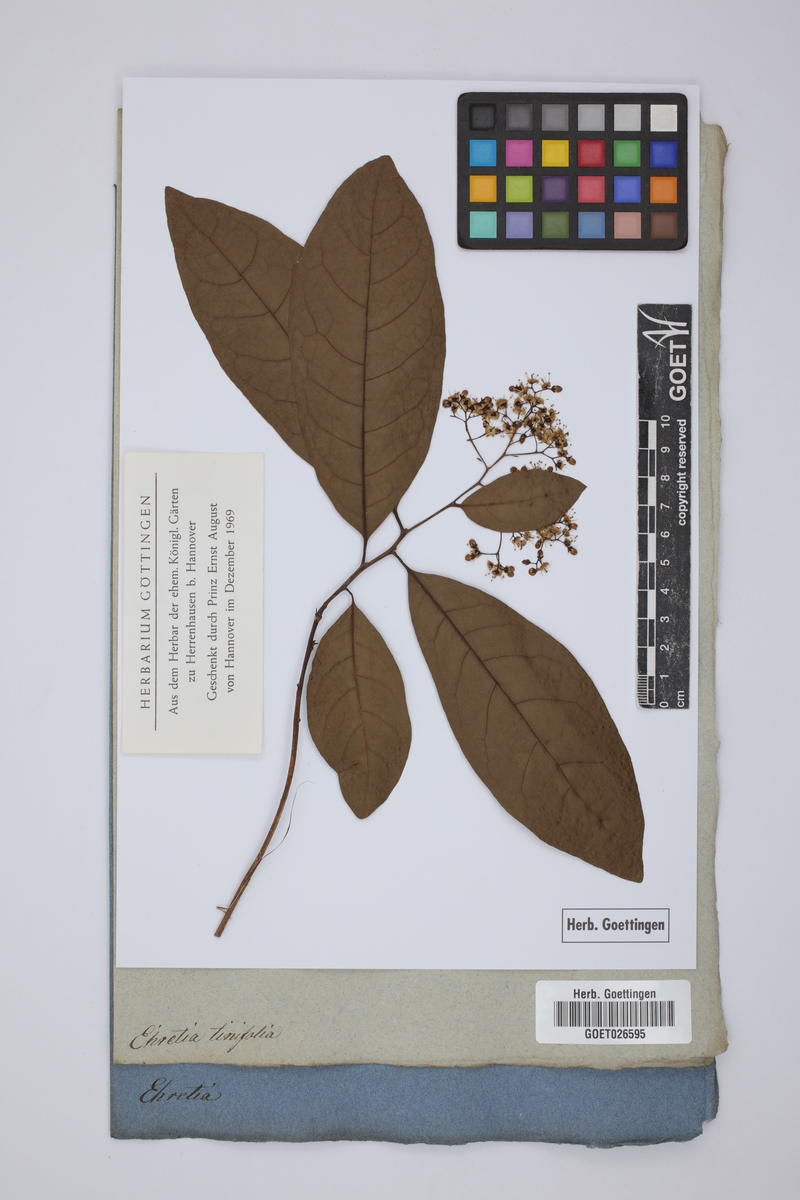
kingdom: Plantae
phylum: Tracheophyta
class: Magnoliopsida
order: Boraginales
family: Ehretiaceae
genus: Ehretia
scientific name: Ehretia tinifolia
